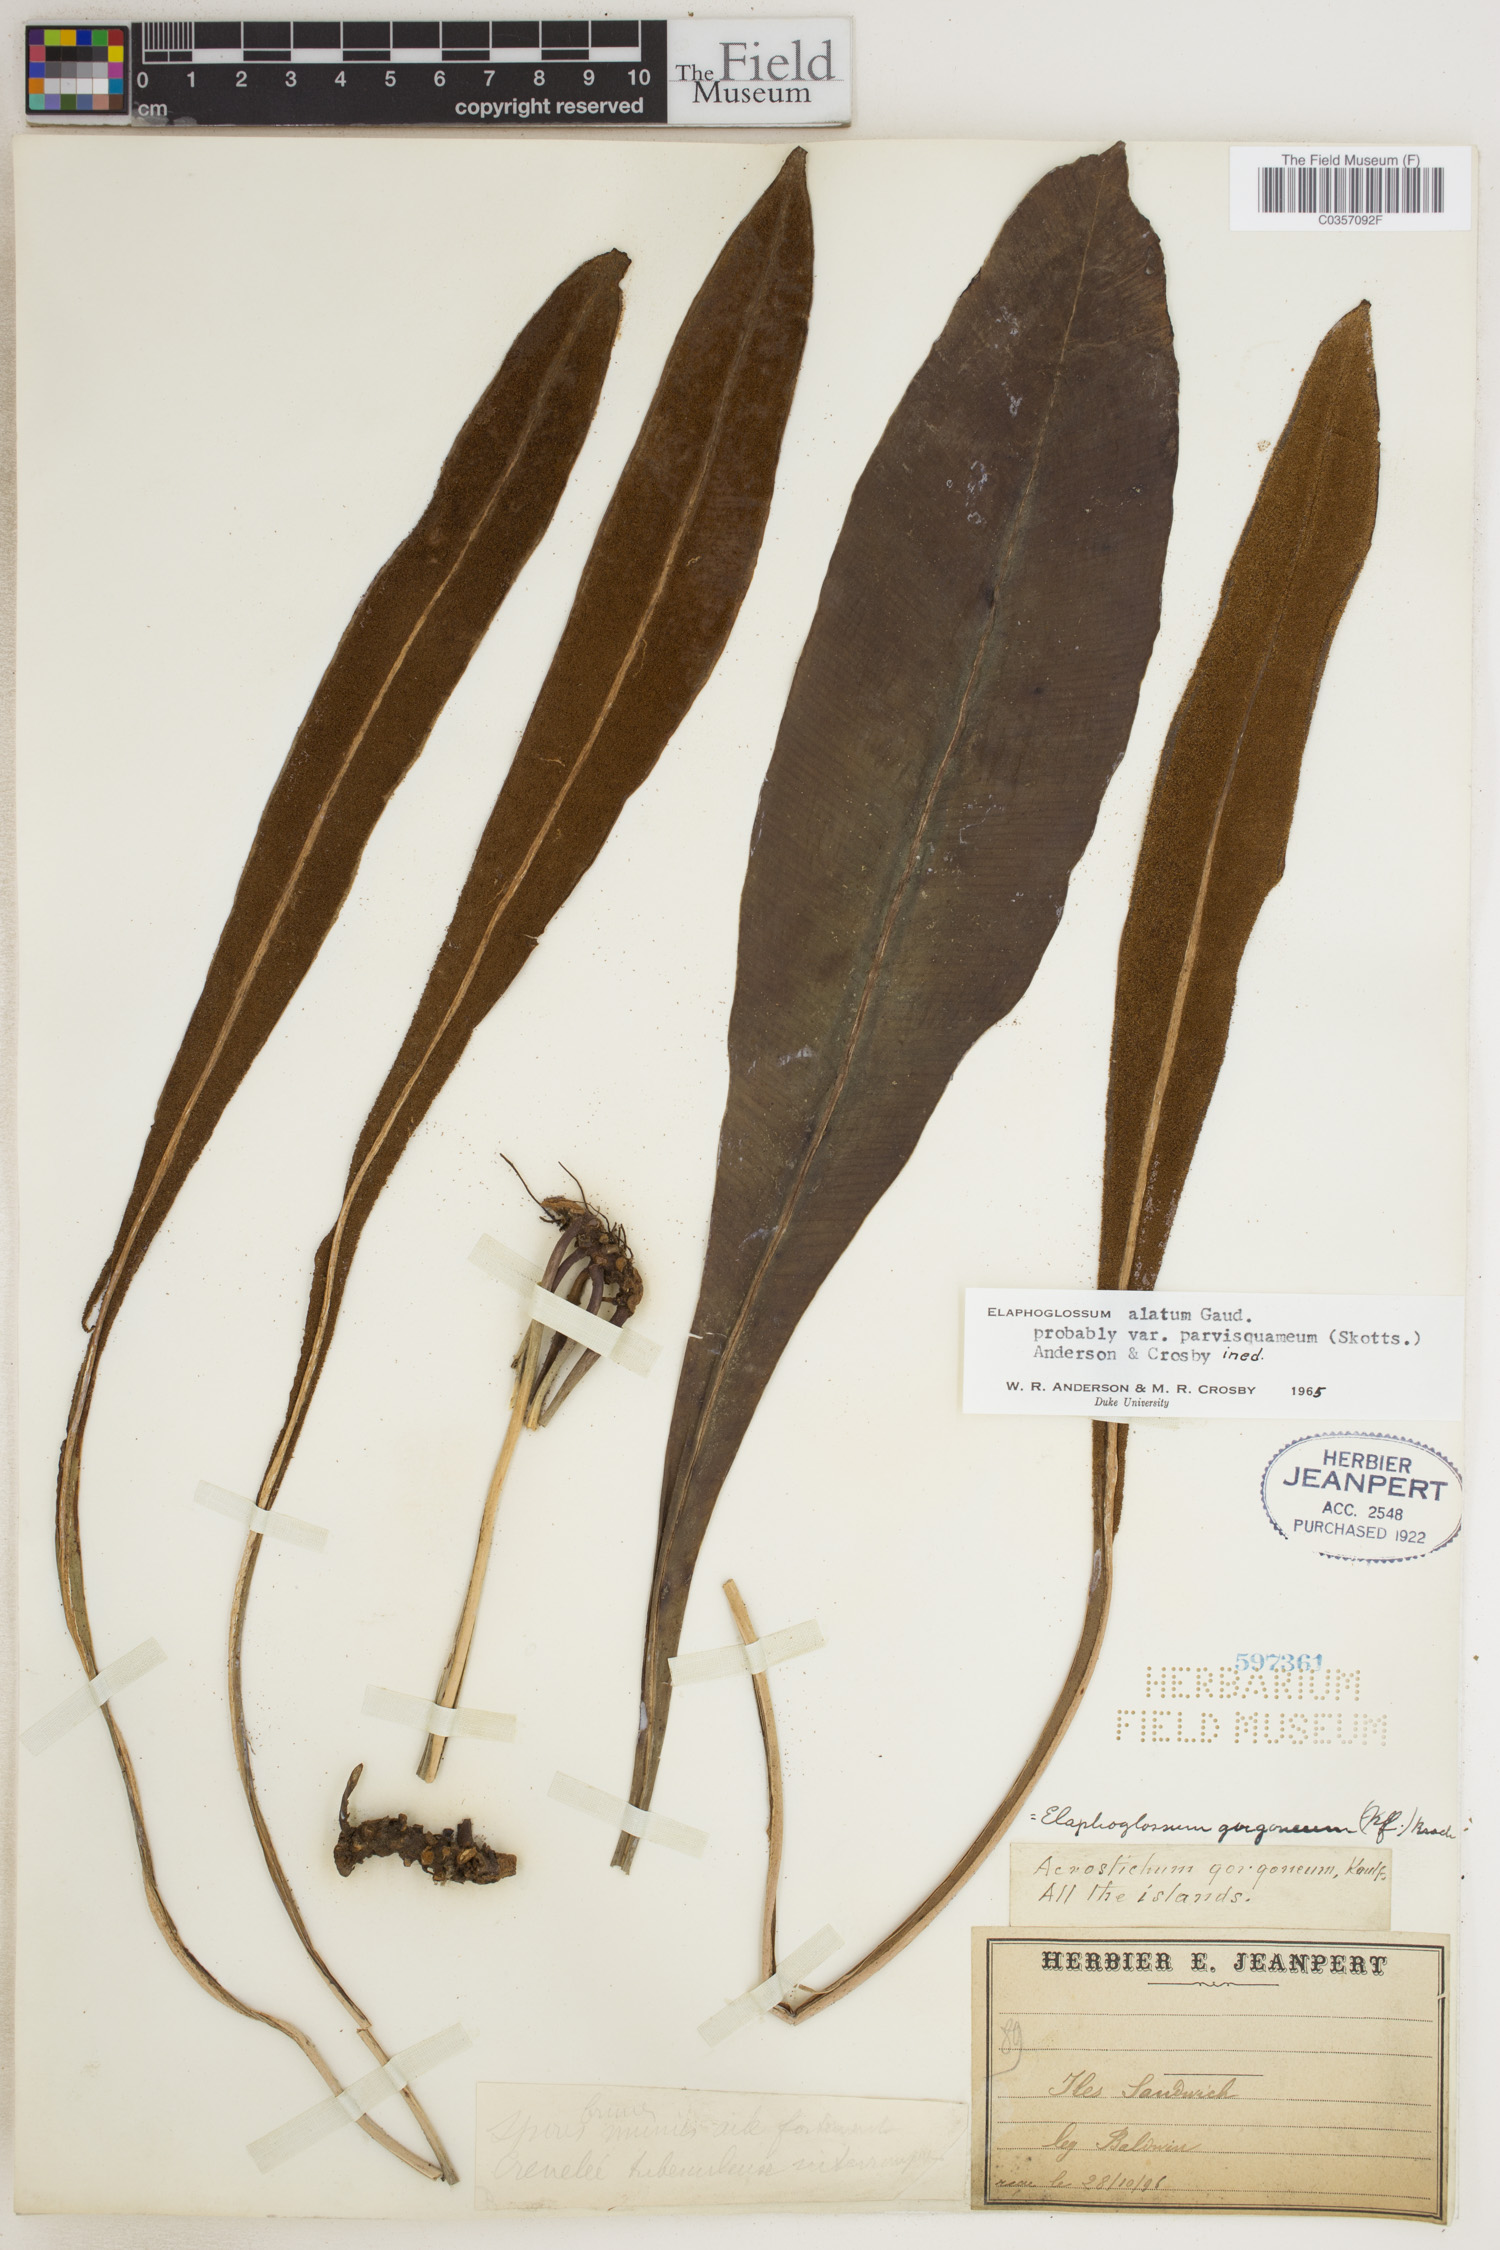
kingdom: Plantae
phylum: Tracheophyta
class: Polypodiopsida
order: Polypodiales
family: Dryopteridaceae
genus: Elaphoglossum
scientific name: Elaphoglossum alatum
